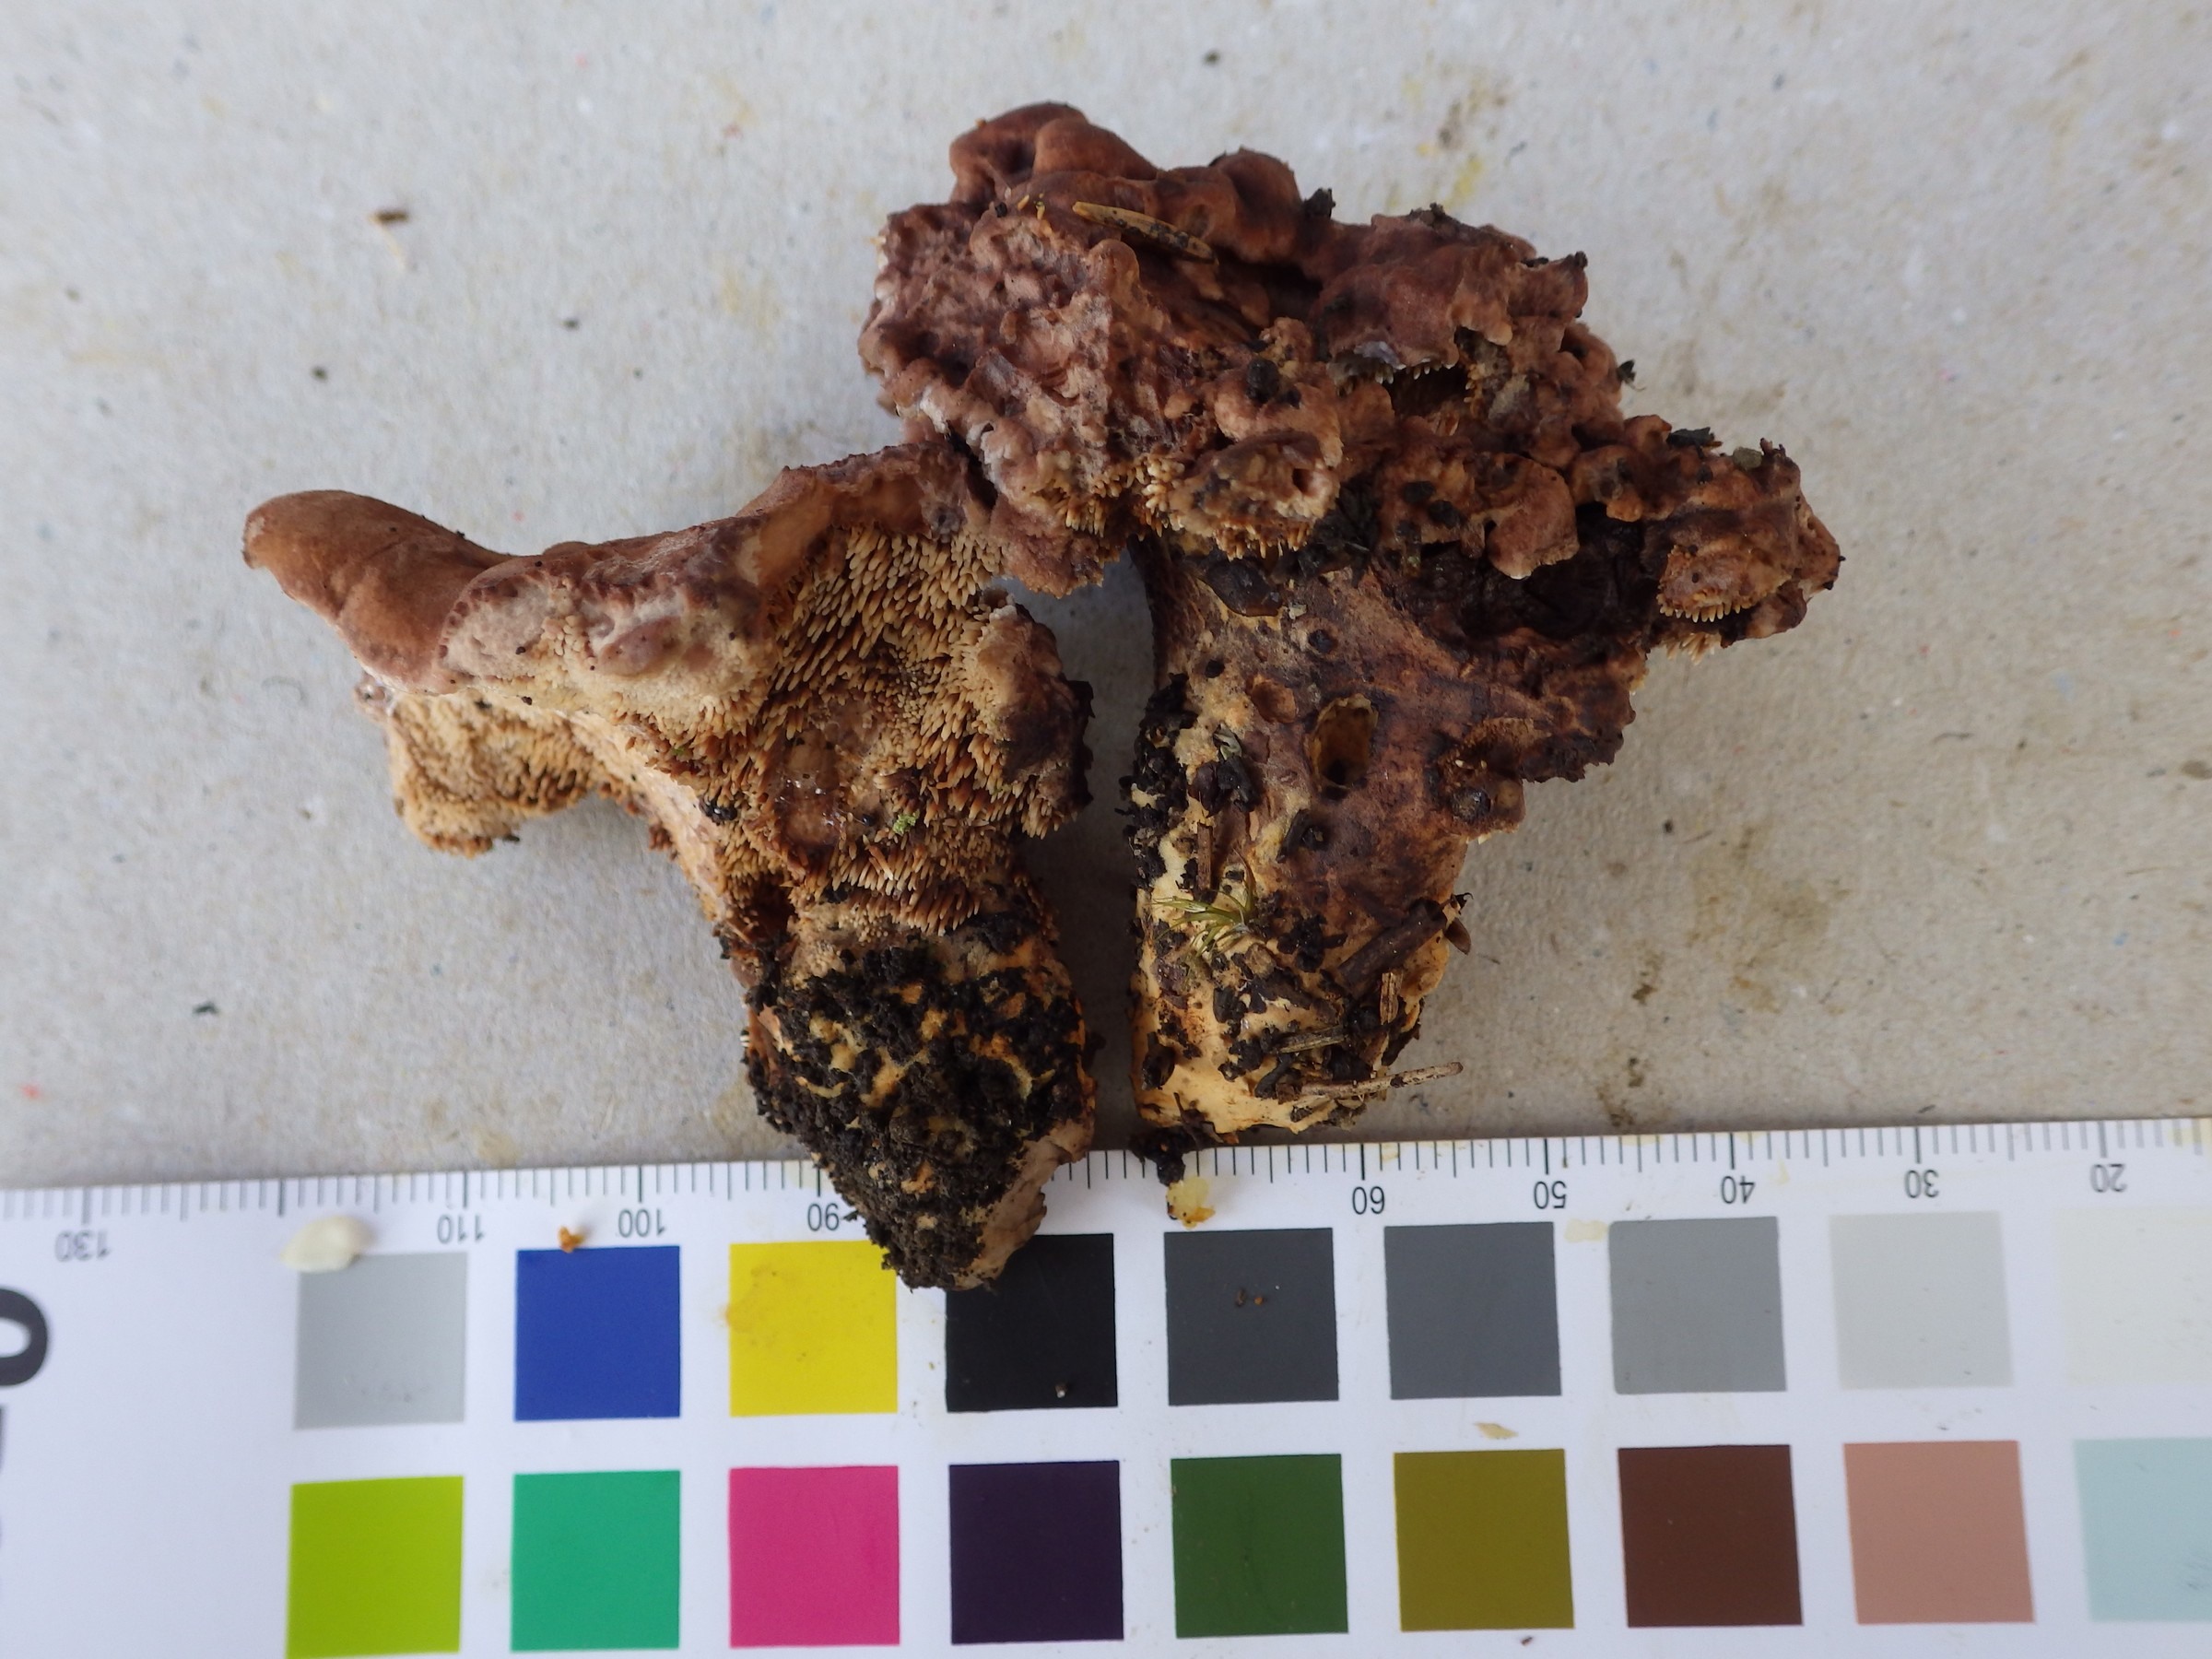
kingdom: Fungi
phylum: Basidiomycota
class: Agaricomycetes
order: Thelephorales
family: Bankeraceae
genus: Hydnellum
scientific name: Hydnellum martioflavum
